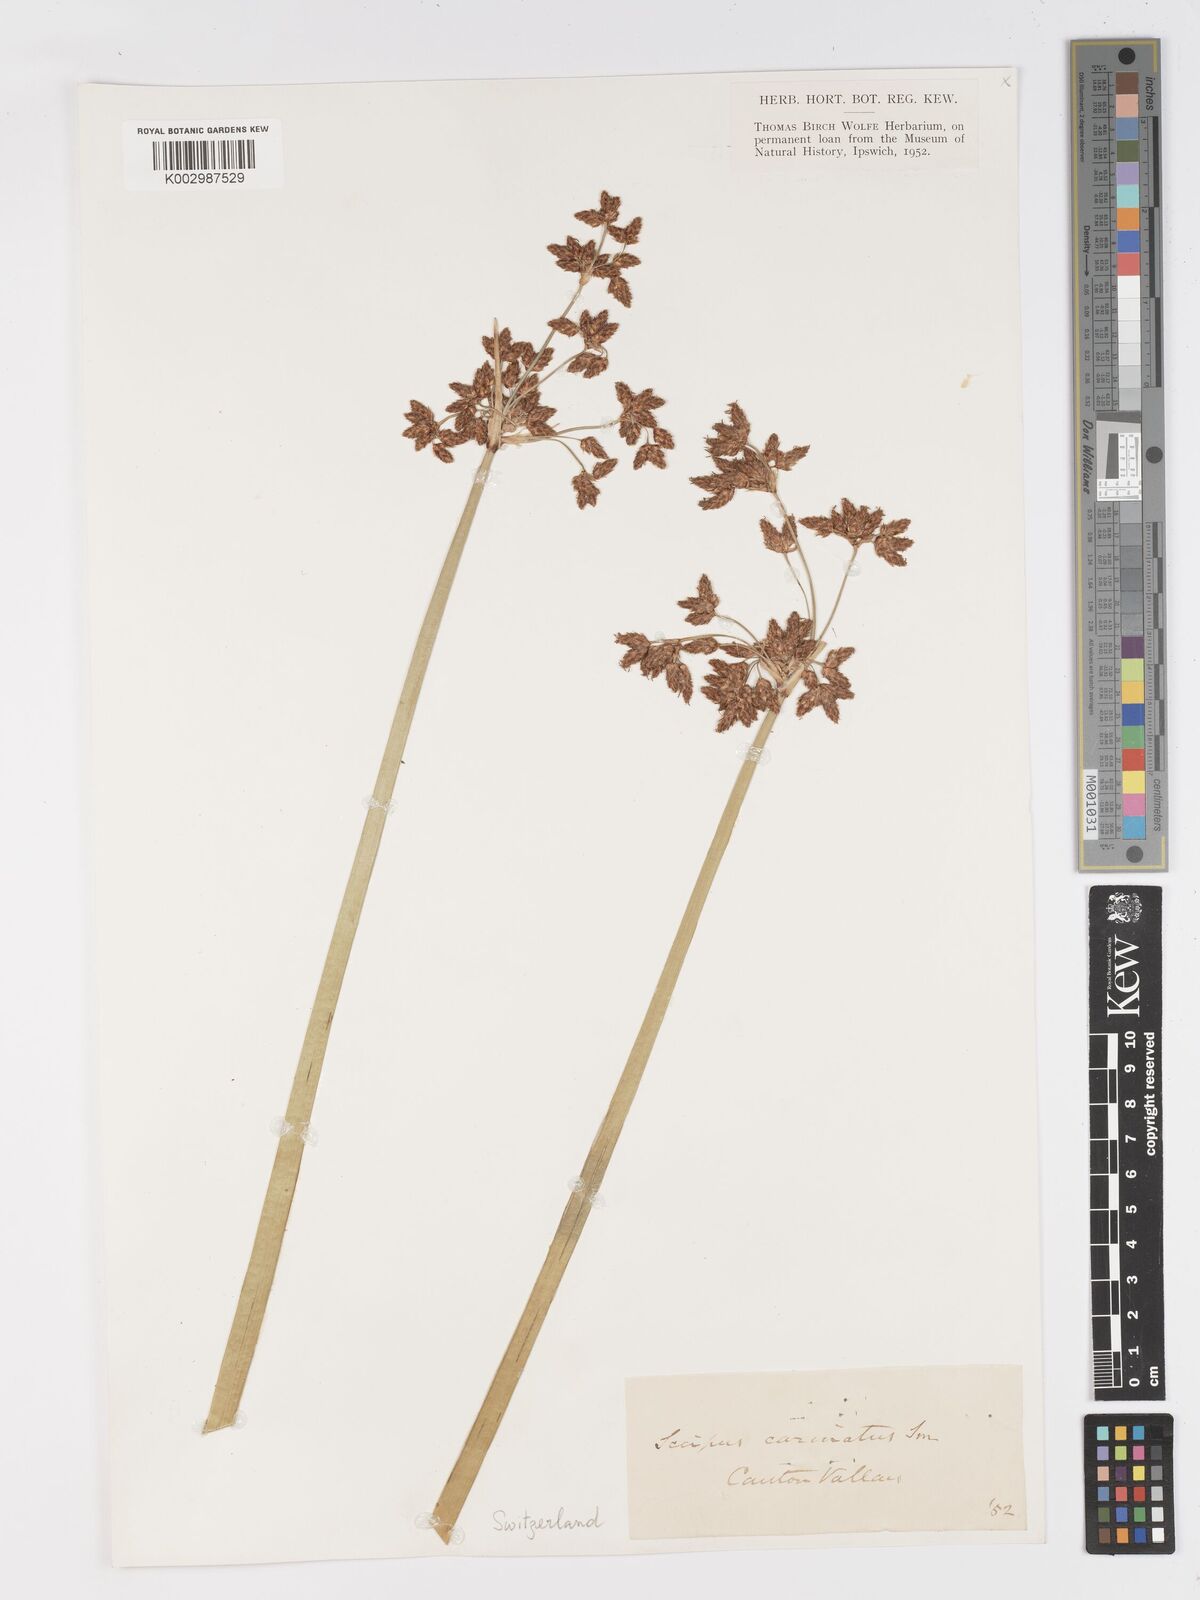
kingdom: Plantae
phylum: Tracheophyta
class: Liliopsida
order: Poales
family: Cyperaceae
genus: Schoenoplectus
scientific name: Schoenoplectus lacustris
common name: Common club-rush
